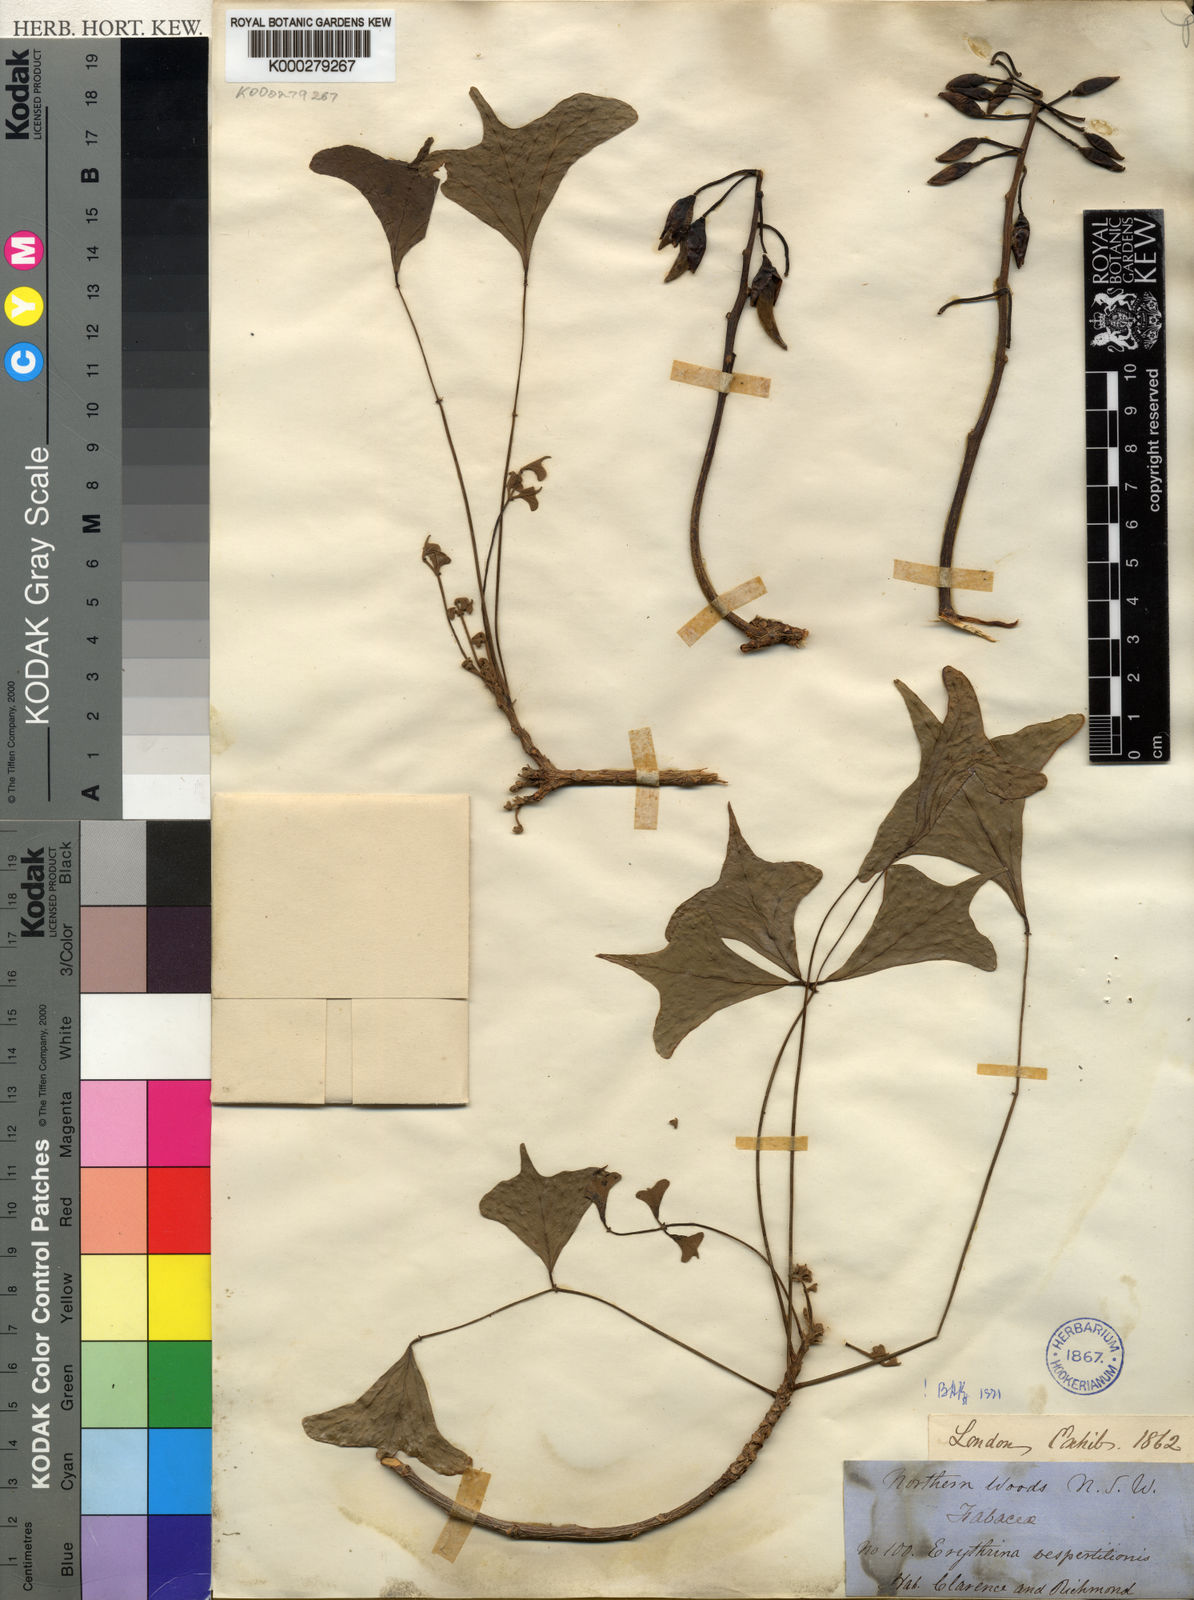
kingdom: Plantae
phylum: Tracheophyta
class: Magnoliopsida
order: Fabales
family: Fabaceae
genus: Erythrina
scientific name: Erythrina vespertilio
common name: Bat-wing coral tree
